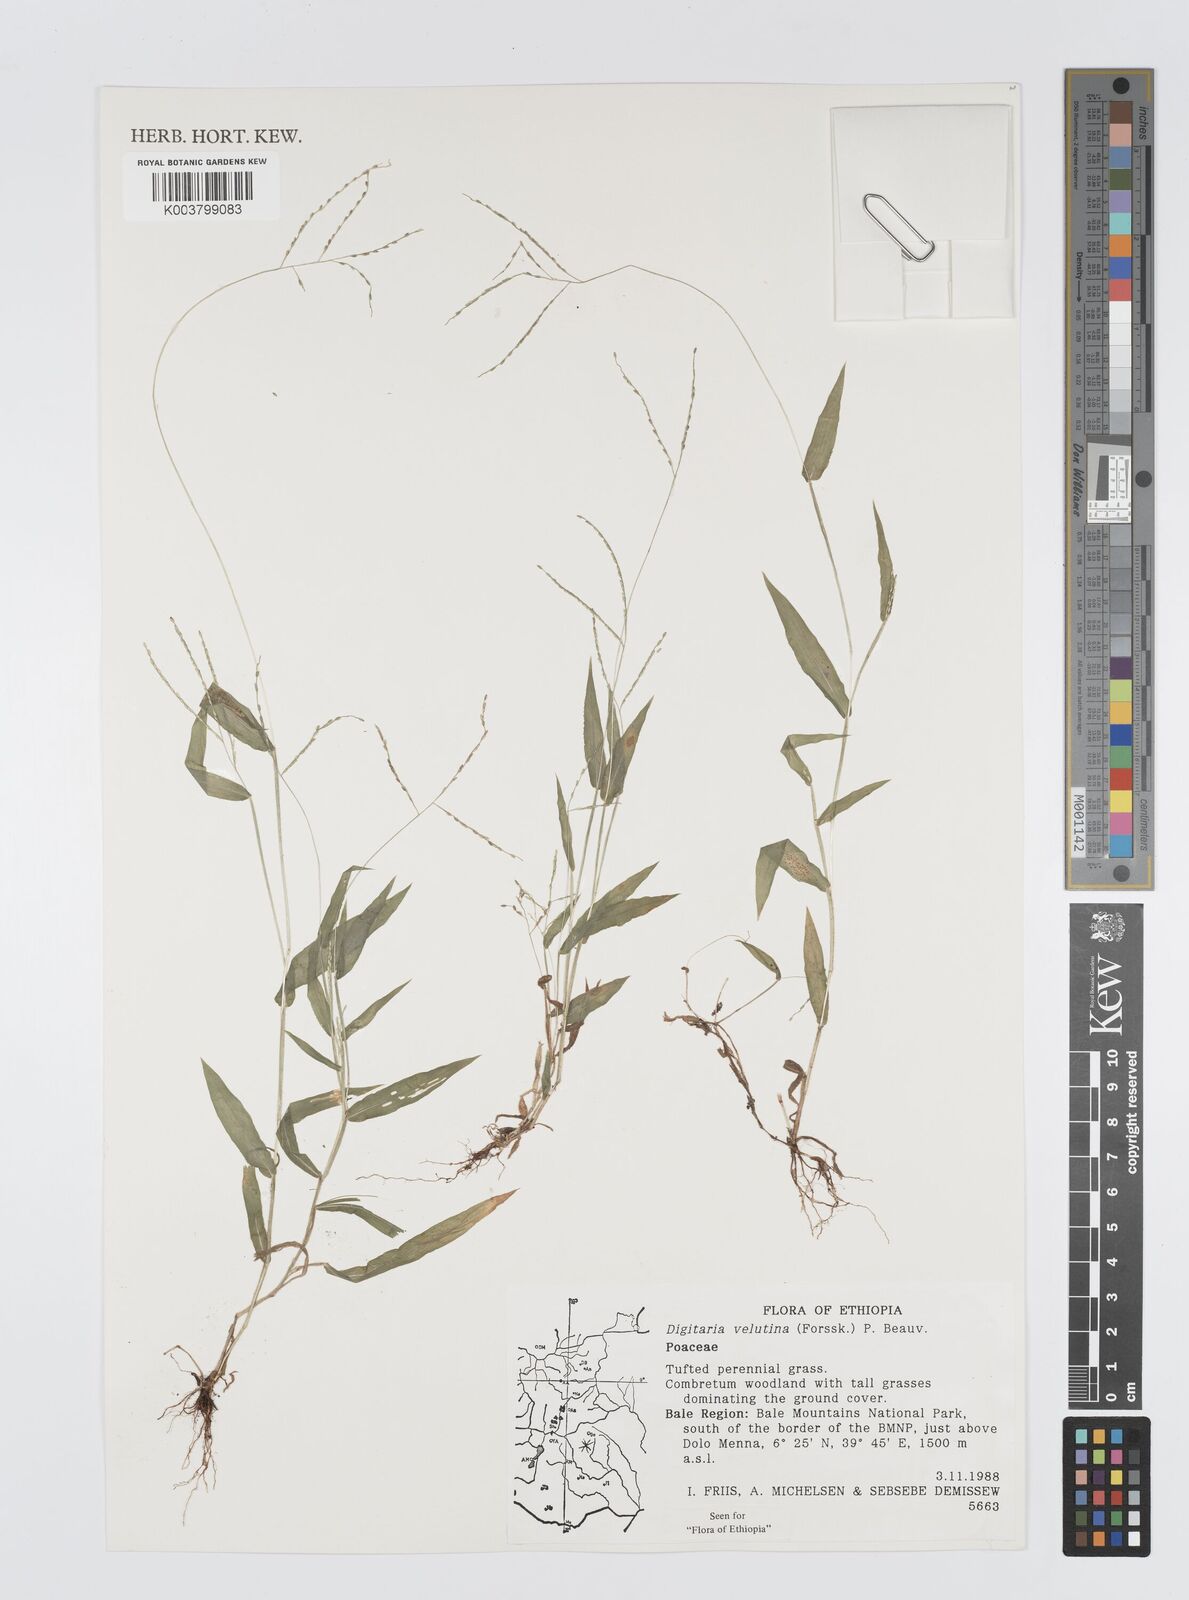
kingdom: Plantae
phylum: Tracheophyta
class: Liliopsida
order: Poales
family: Poaceae
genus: Digitaria
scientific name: Digitaria velutina
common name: Long-plume finger grass
